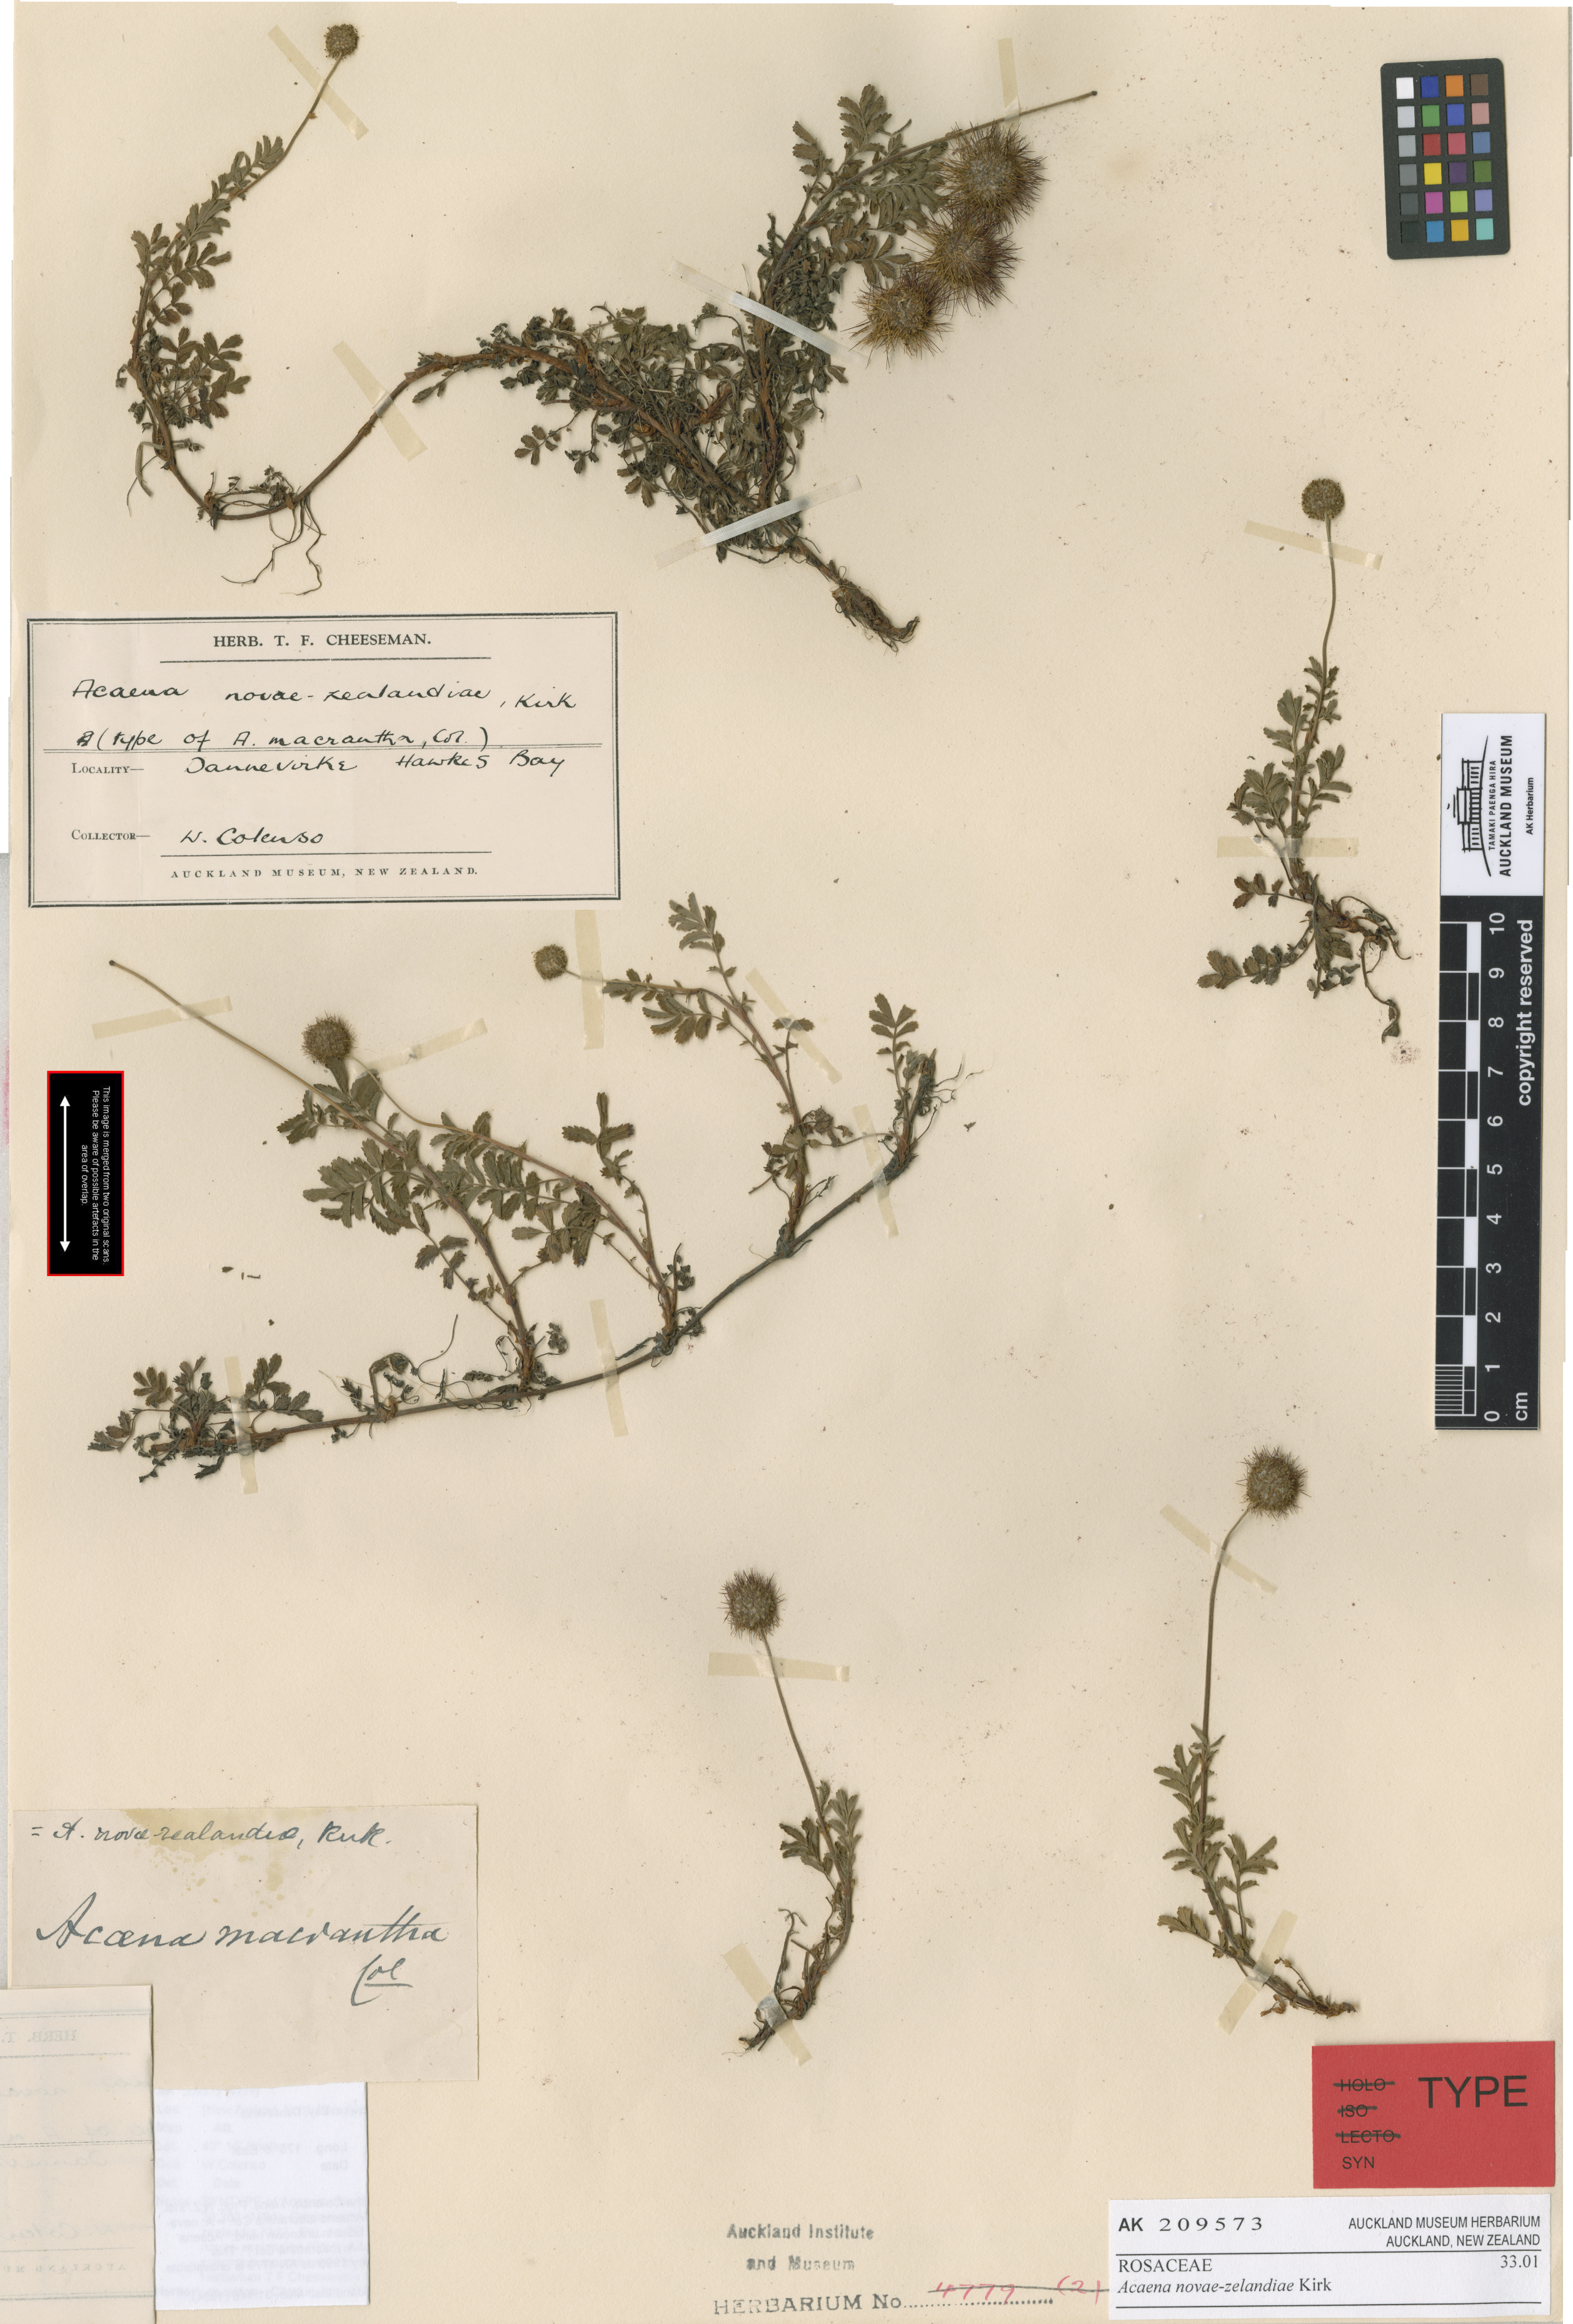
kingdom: Plantae
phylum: Tracheophyta
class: Magnoliopsida
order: Rosales
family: Rosaceae
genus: Acaena
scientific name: Acaena novae-zelandiae
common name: Pirri-pirri-bur
